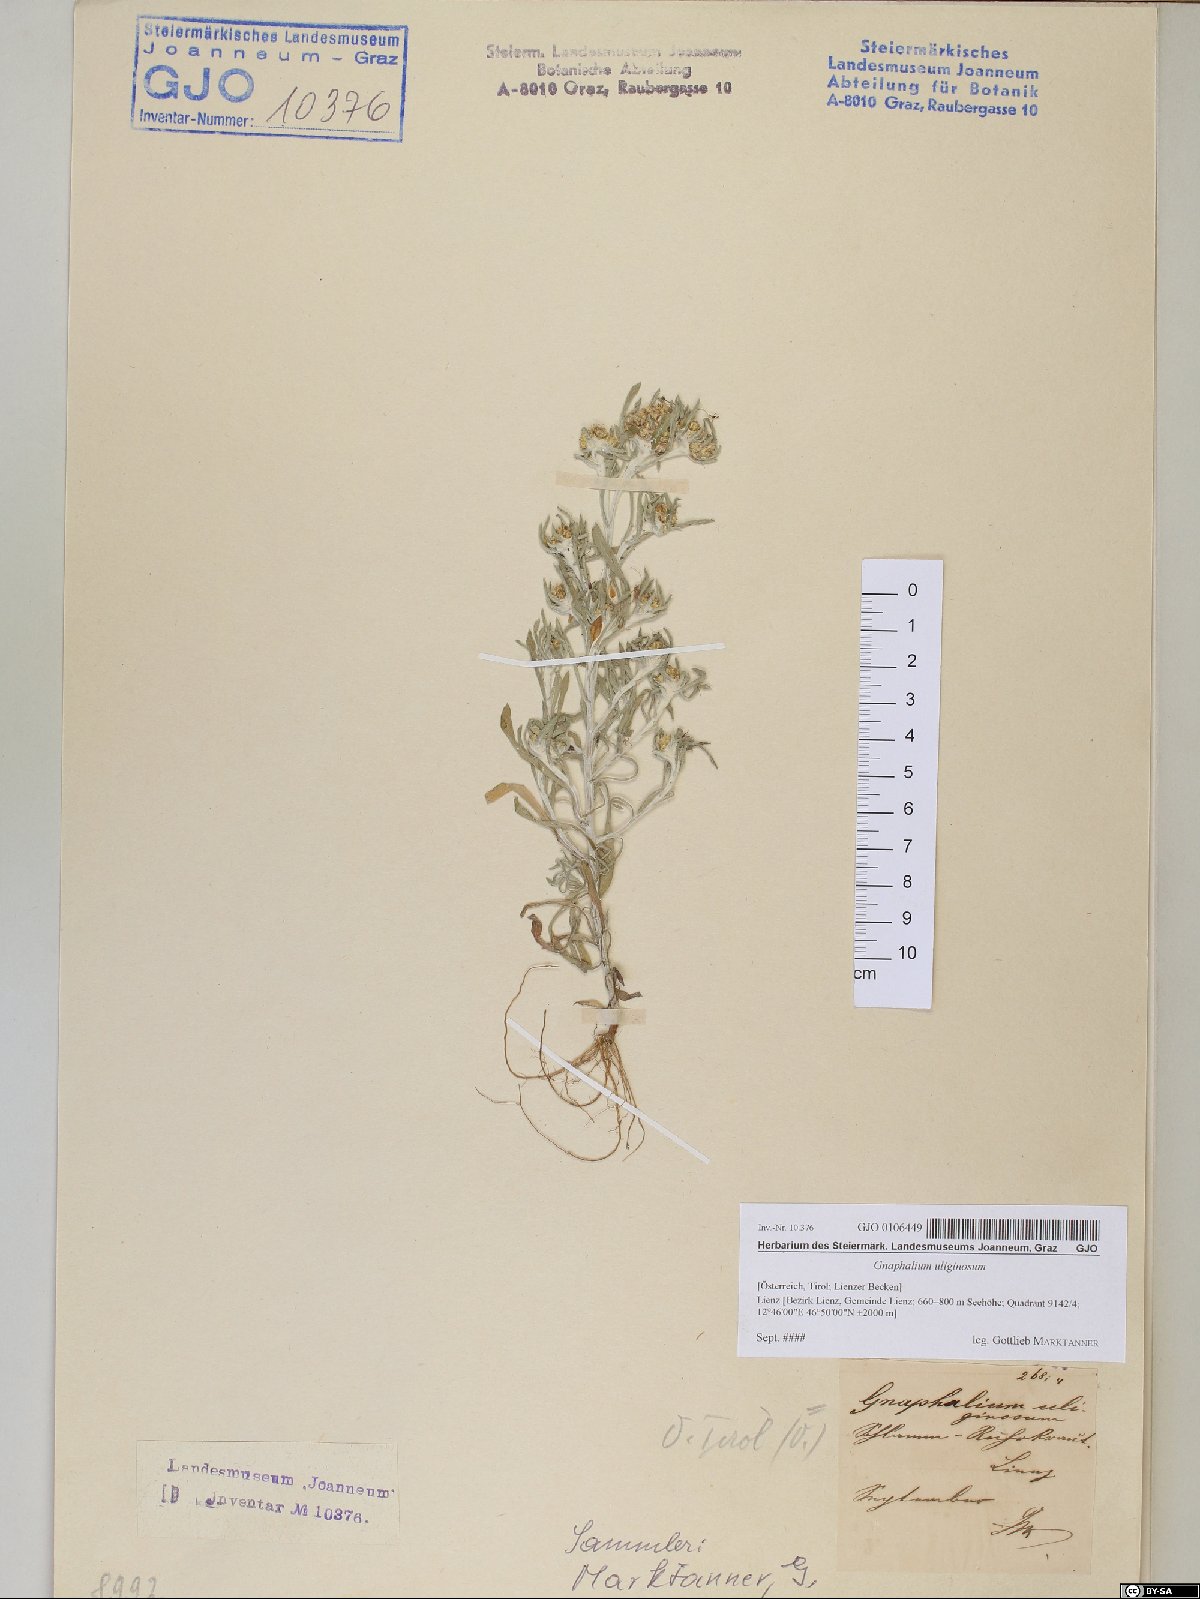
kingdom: Plantae
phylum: Tracheophyta
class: Magnoliopsida
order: Asterales
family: Asteraceae
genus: Gnaphalium
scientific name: Gnaphalium uliginosum
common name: Marsh cudweed
